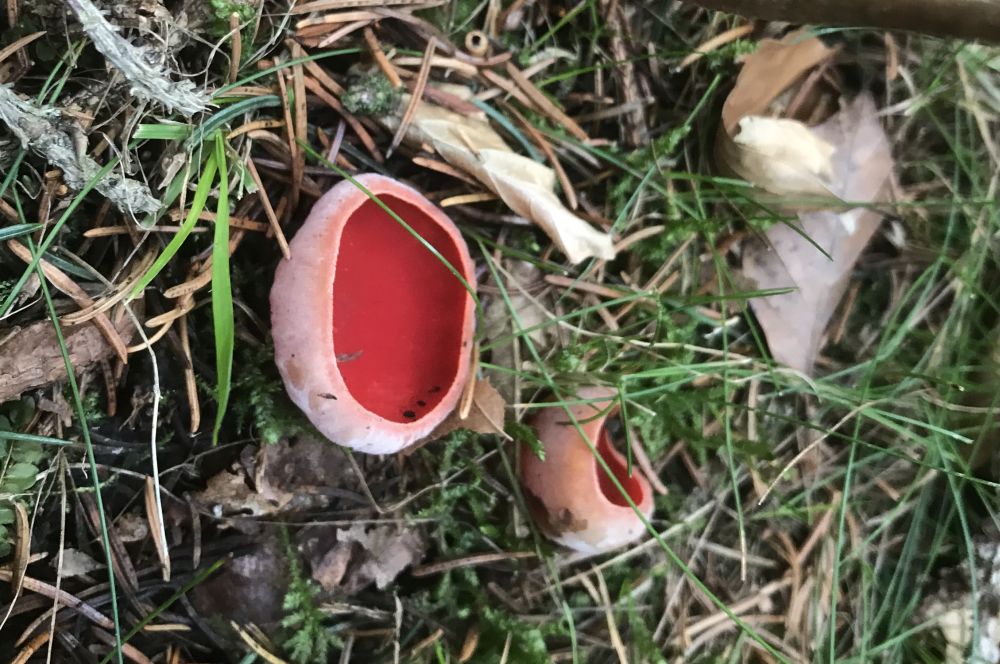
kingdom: Fungi
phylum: Ascomycota
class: Pezizomycetes
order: Pezizales
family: Sarcoscyphaceae
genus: Sarcoscypha
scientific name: Sarcoscypha austriaca
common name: krølhåret pragtbæger
